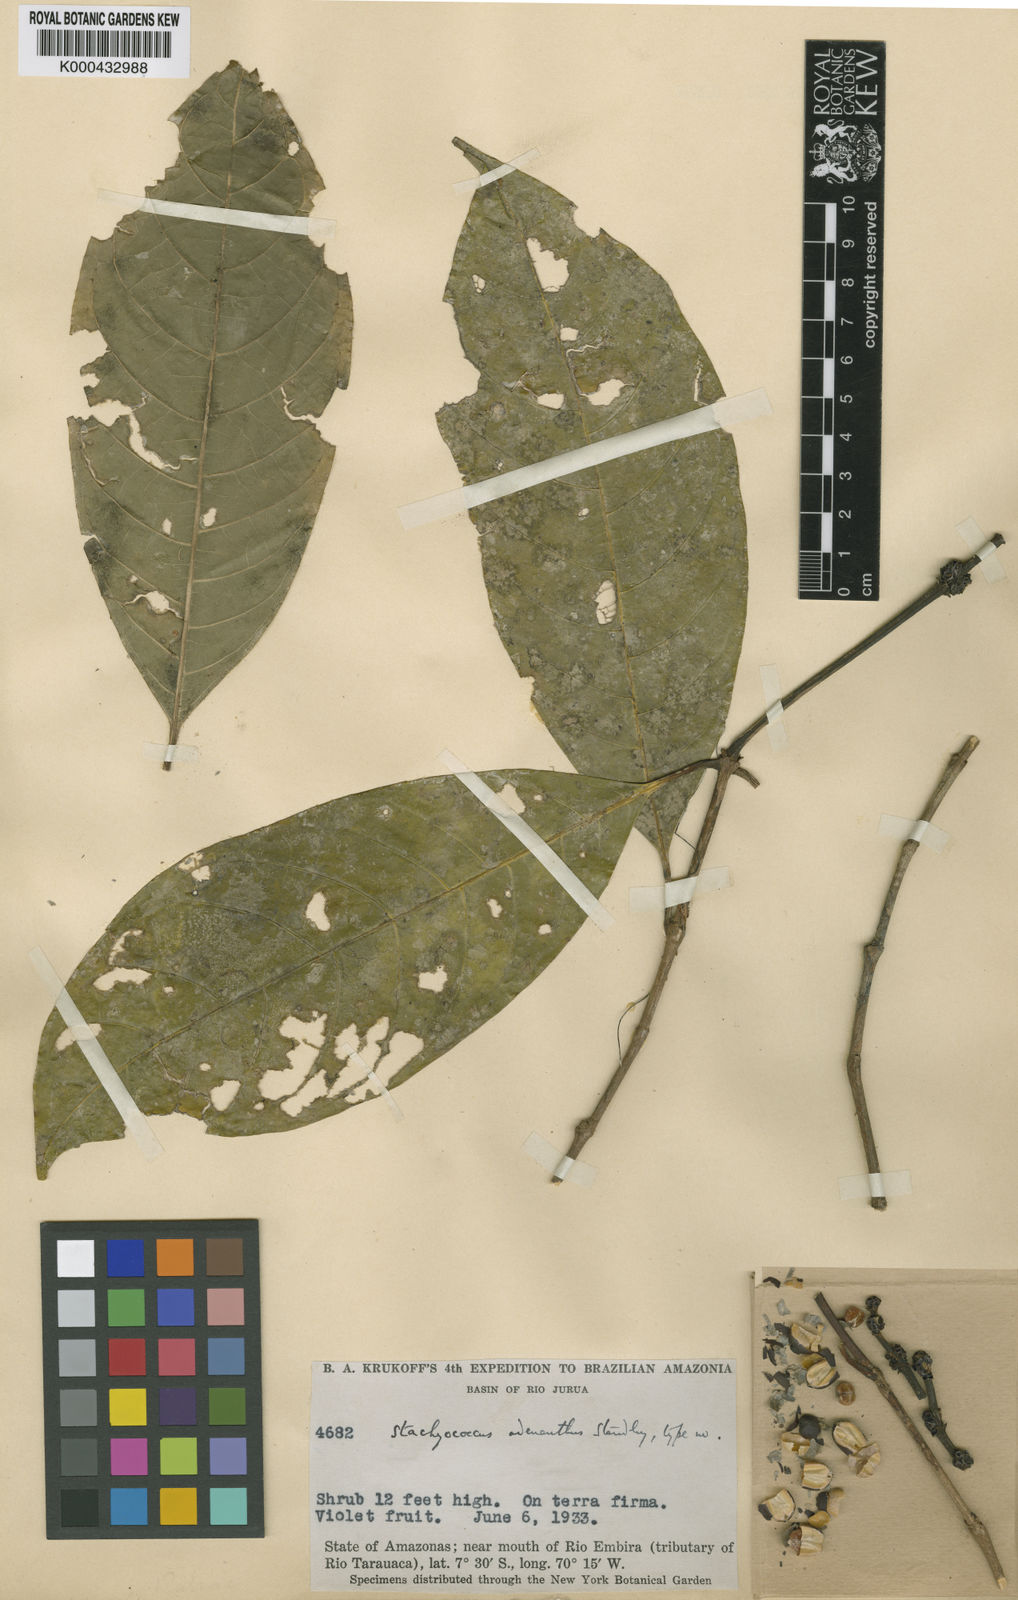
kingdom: Plantae
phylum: Tracheophyta
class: Magnoliopsida
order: Gentianales
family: Rubiaceae
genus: Carapichea
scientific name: Carapichea adinantha
